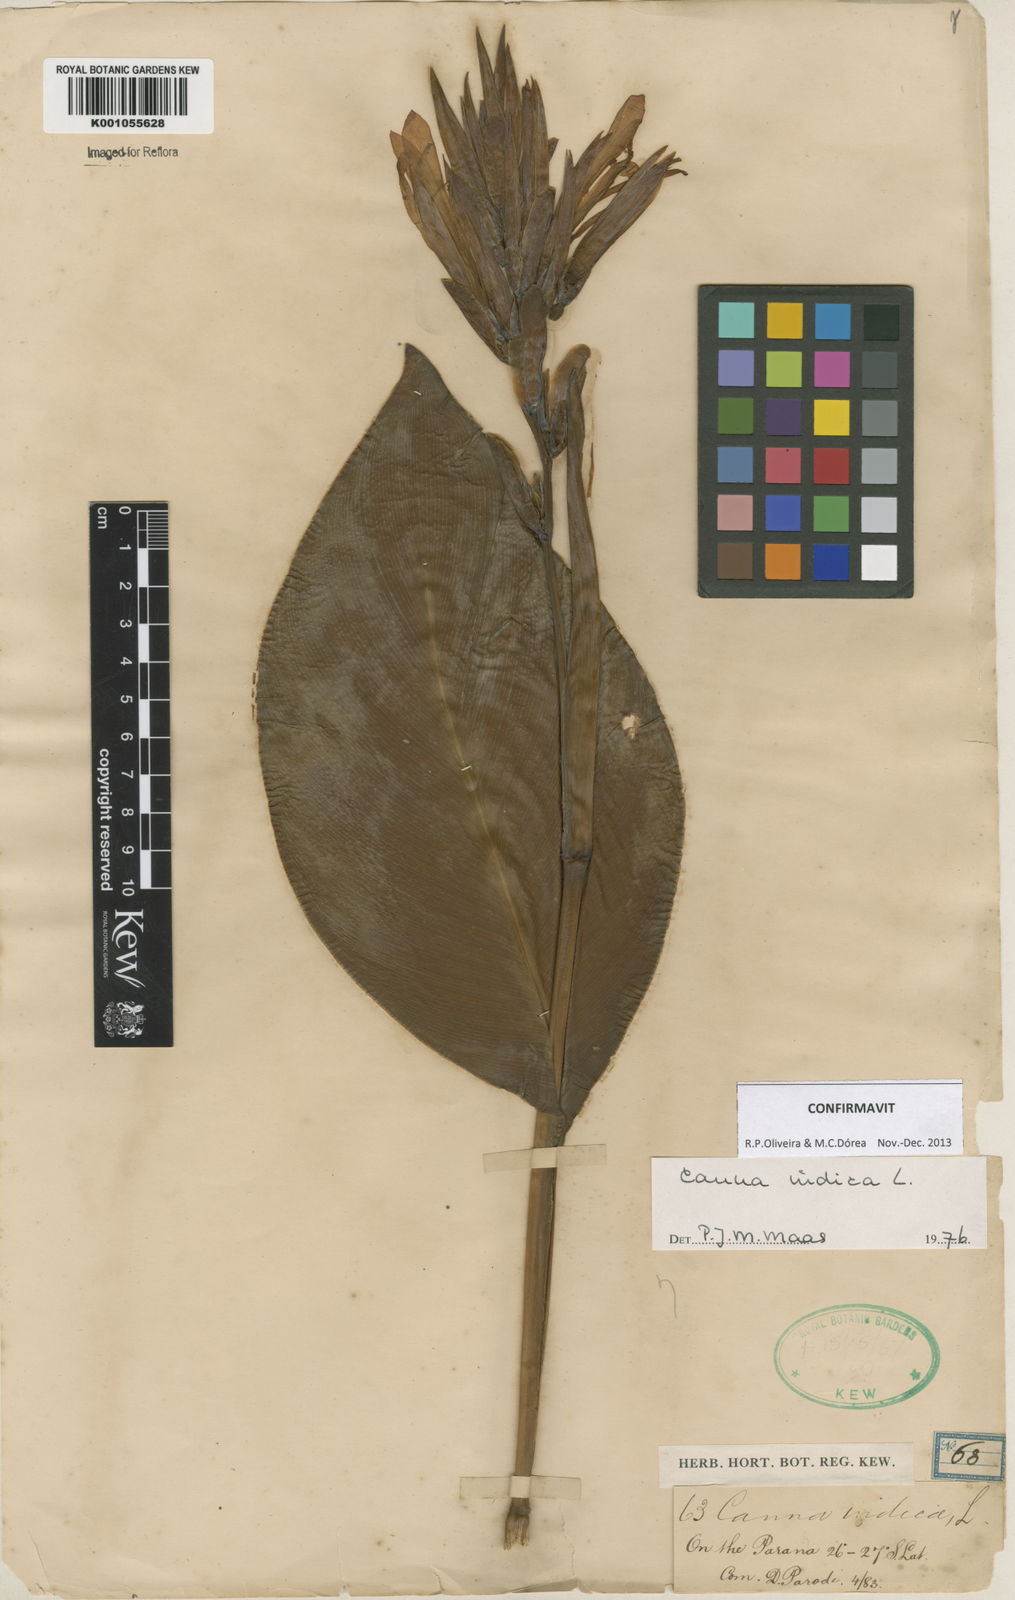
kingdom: Plantae
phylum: Tracheophyta
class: Liliopsida
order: Zingiberales
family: Cannaceae
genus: Canna
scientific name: Canna indica
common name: Indian shot
